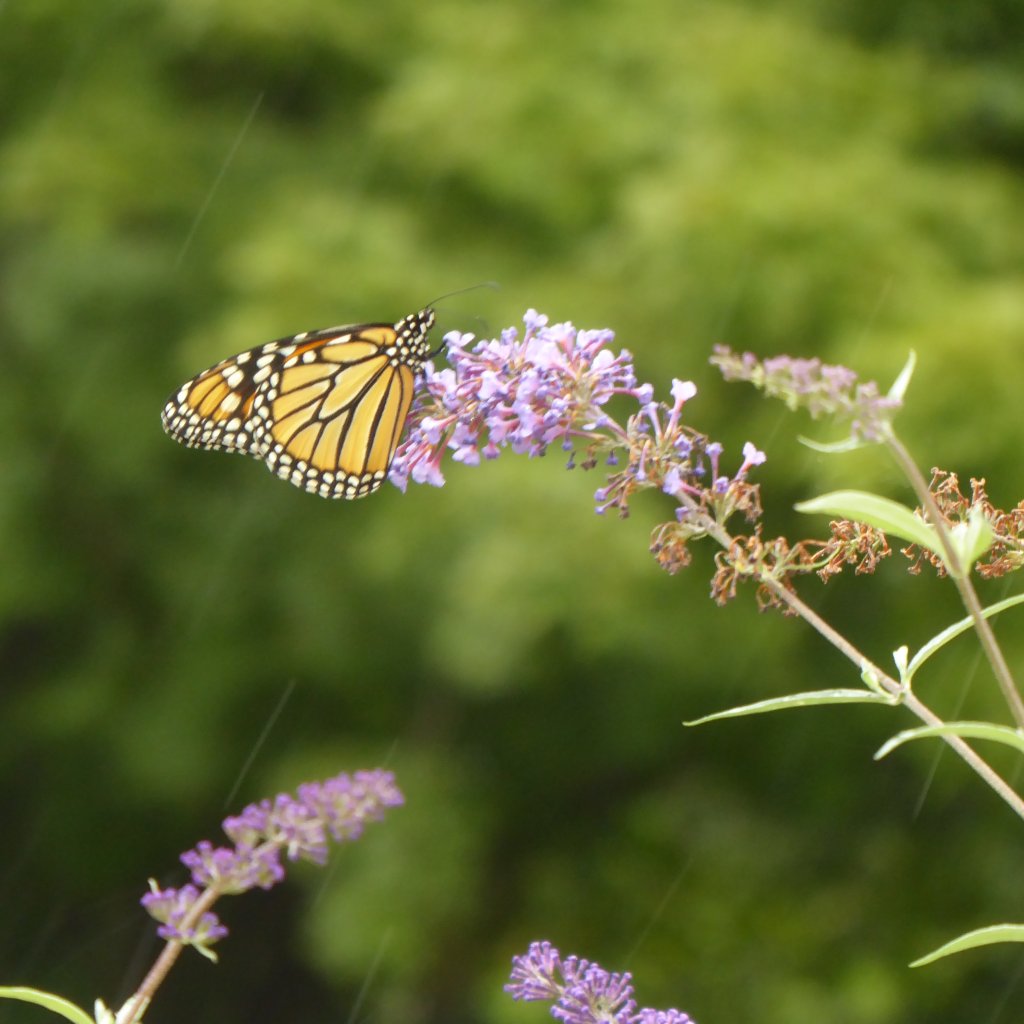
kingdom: Animalia
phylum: Arthropoda
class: Insecta
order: Lepidoptera
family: Nymphalidae
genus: Danaus
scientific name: Danaus plexippus
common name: Monarch
